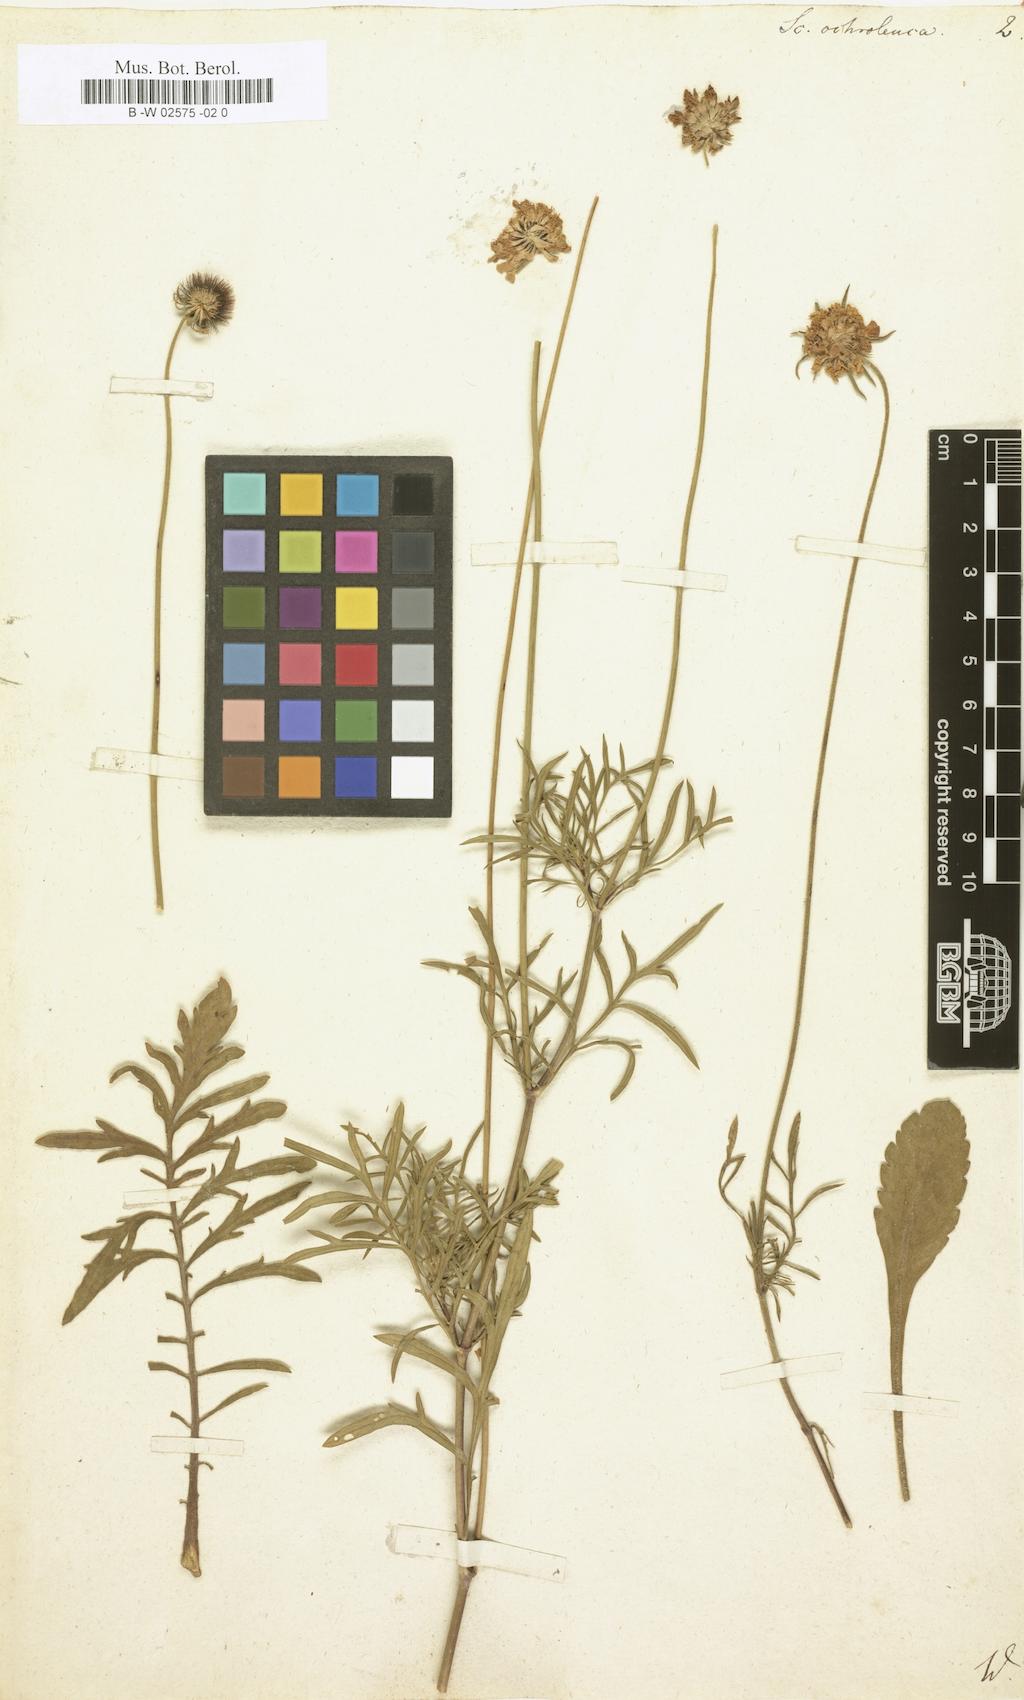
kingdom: Plantae
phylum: Tracheophyta
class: Magnoliopsida
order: Dipsacales
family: Caprifoliaceae
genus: Scabiosa
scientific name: Scabiosa ochroleuca
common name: Cream pincushions
